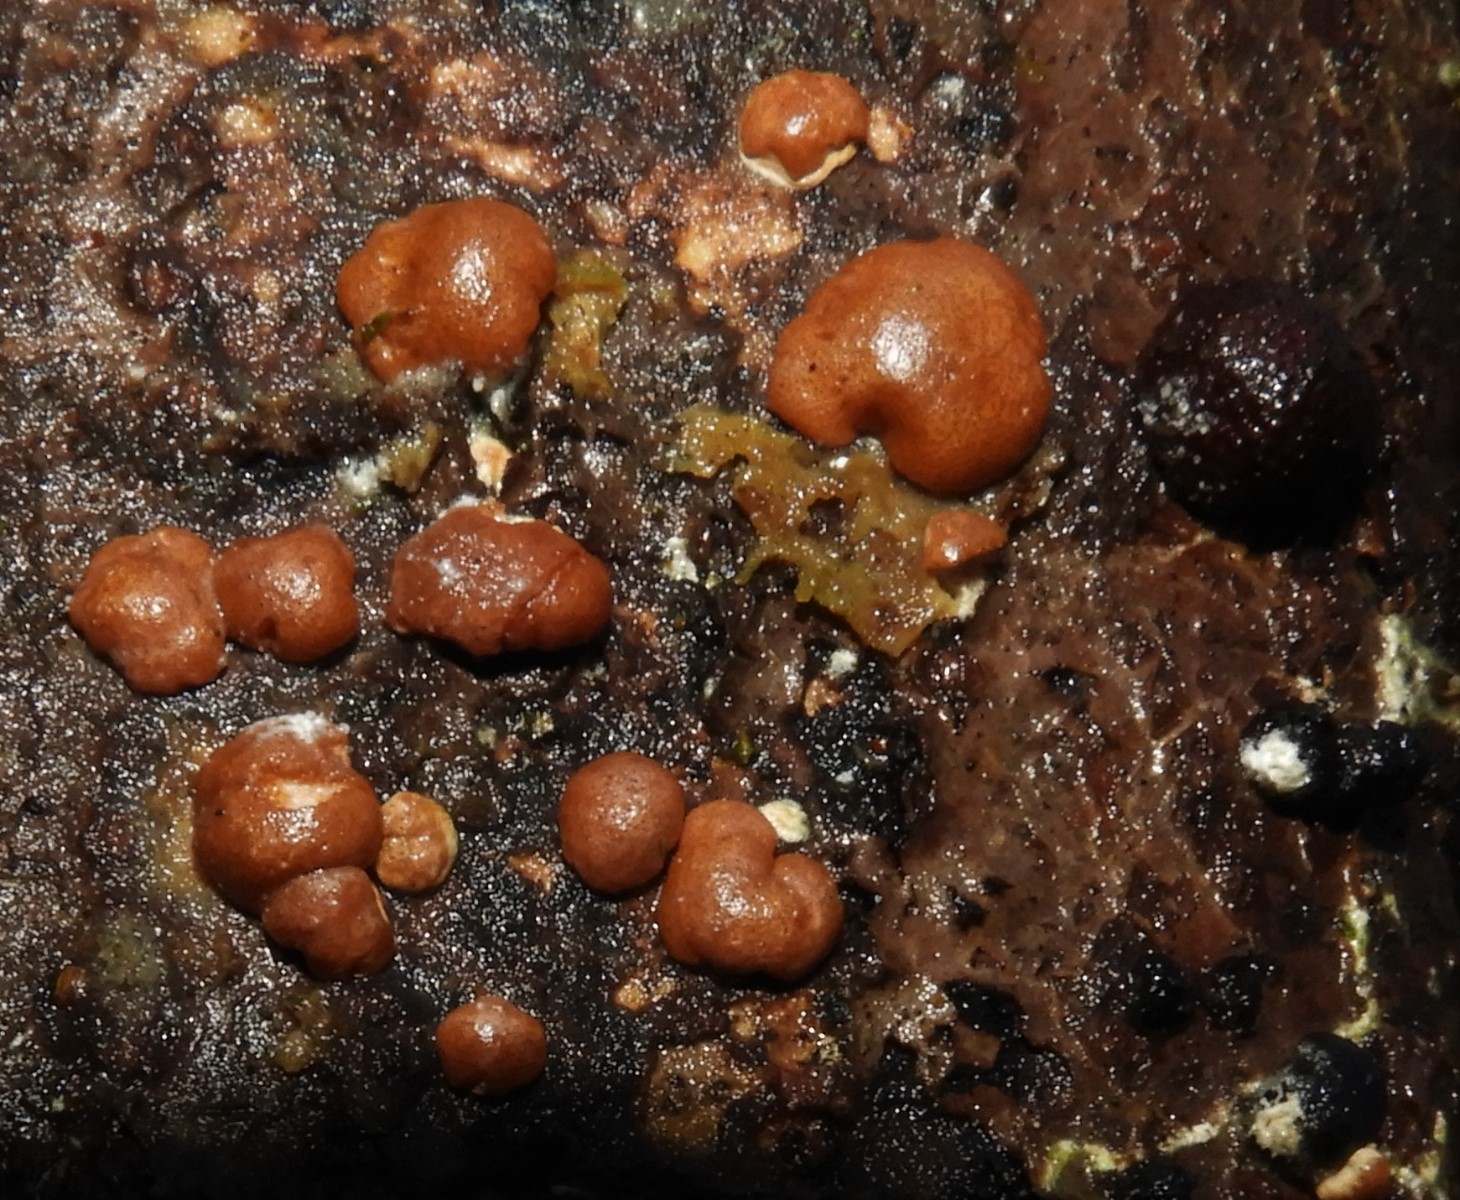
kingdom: Fungi
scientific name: Fungi
